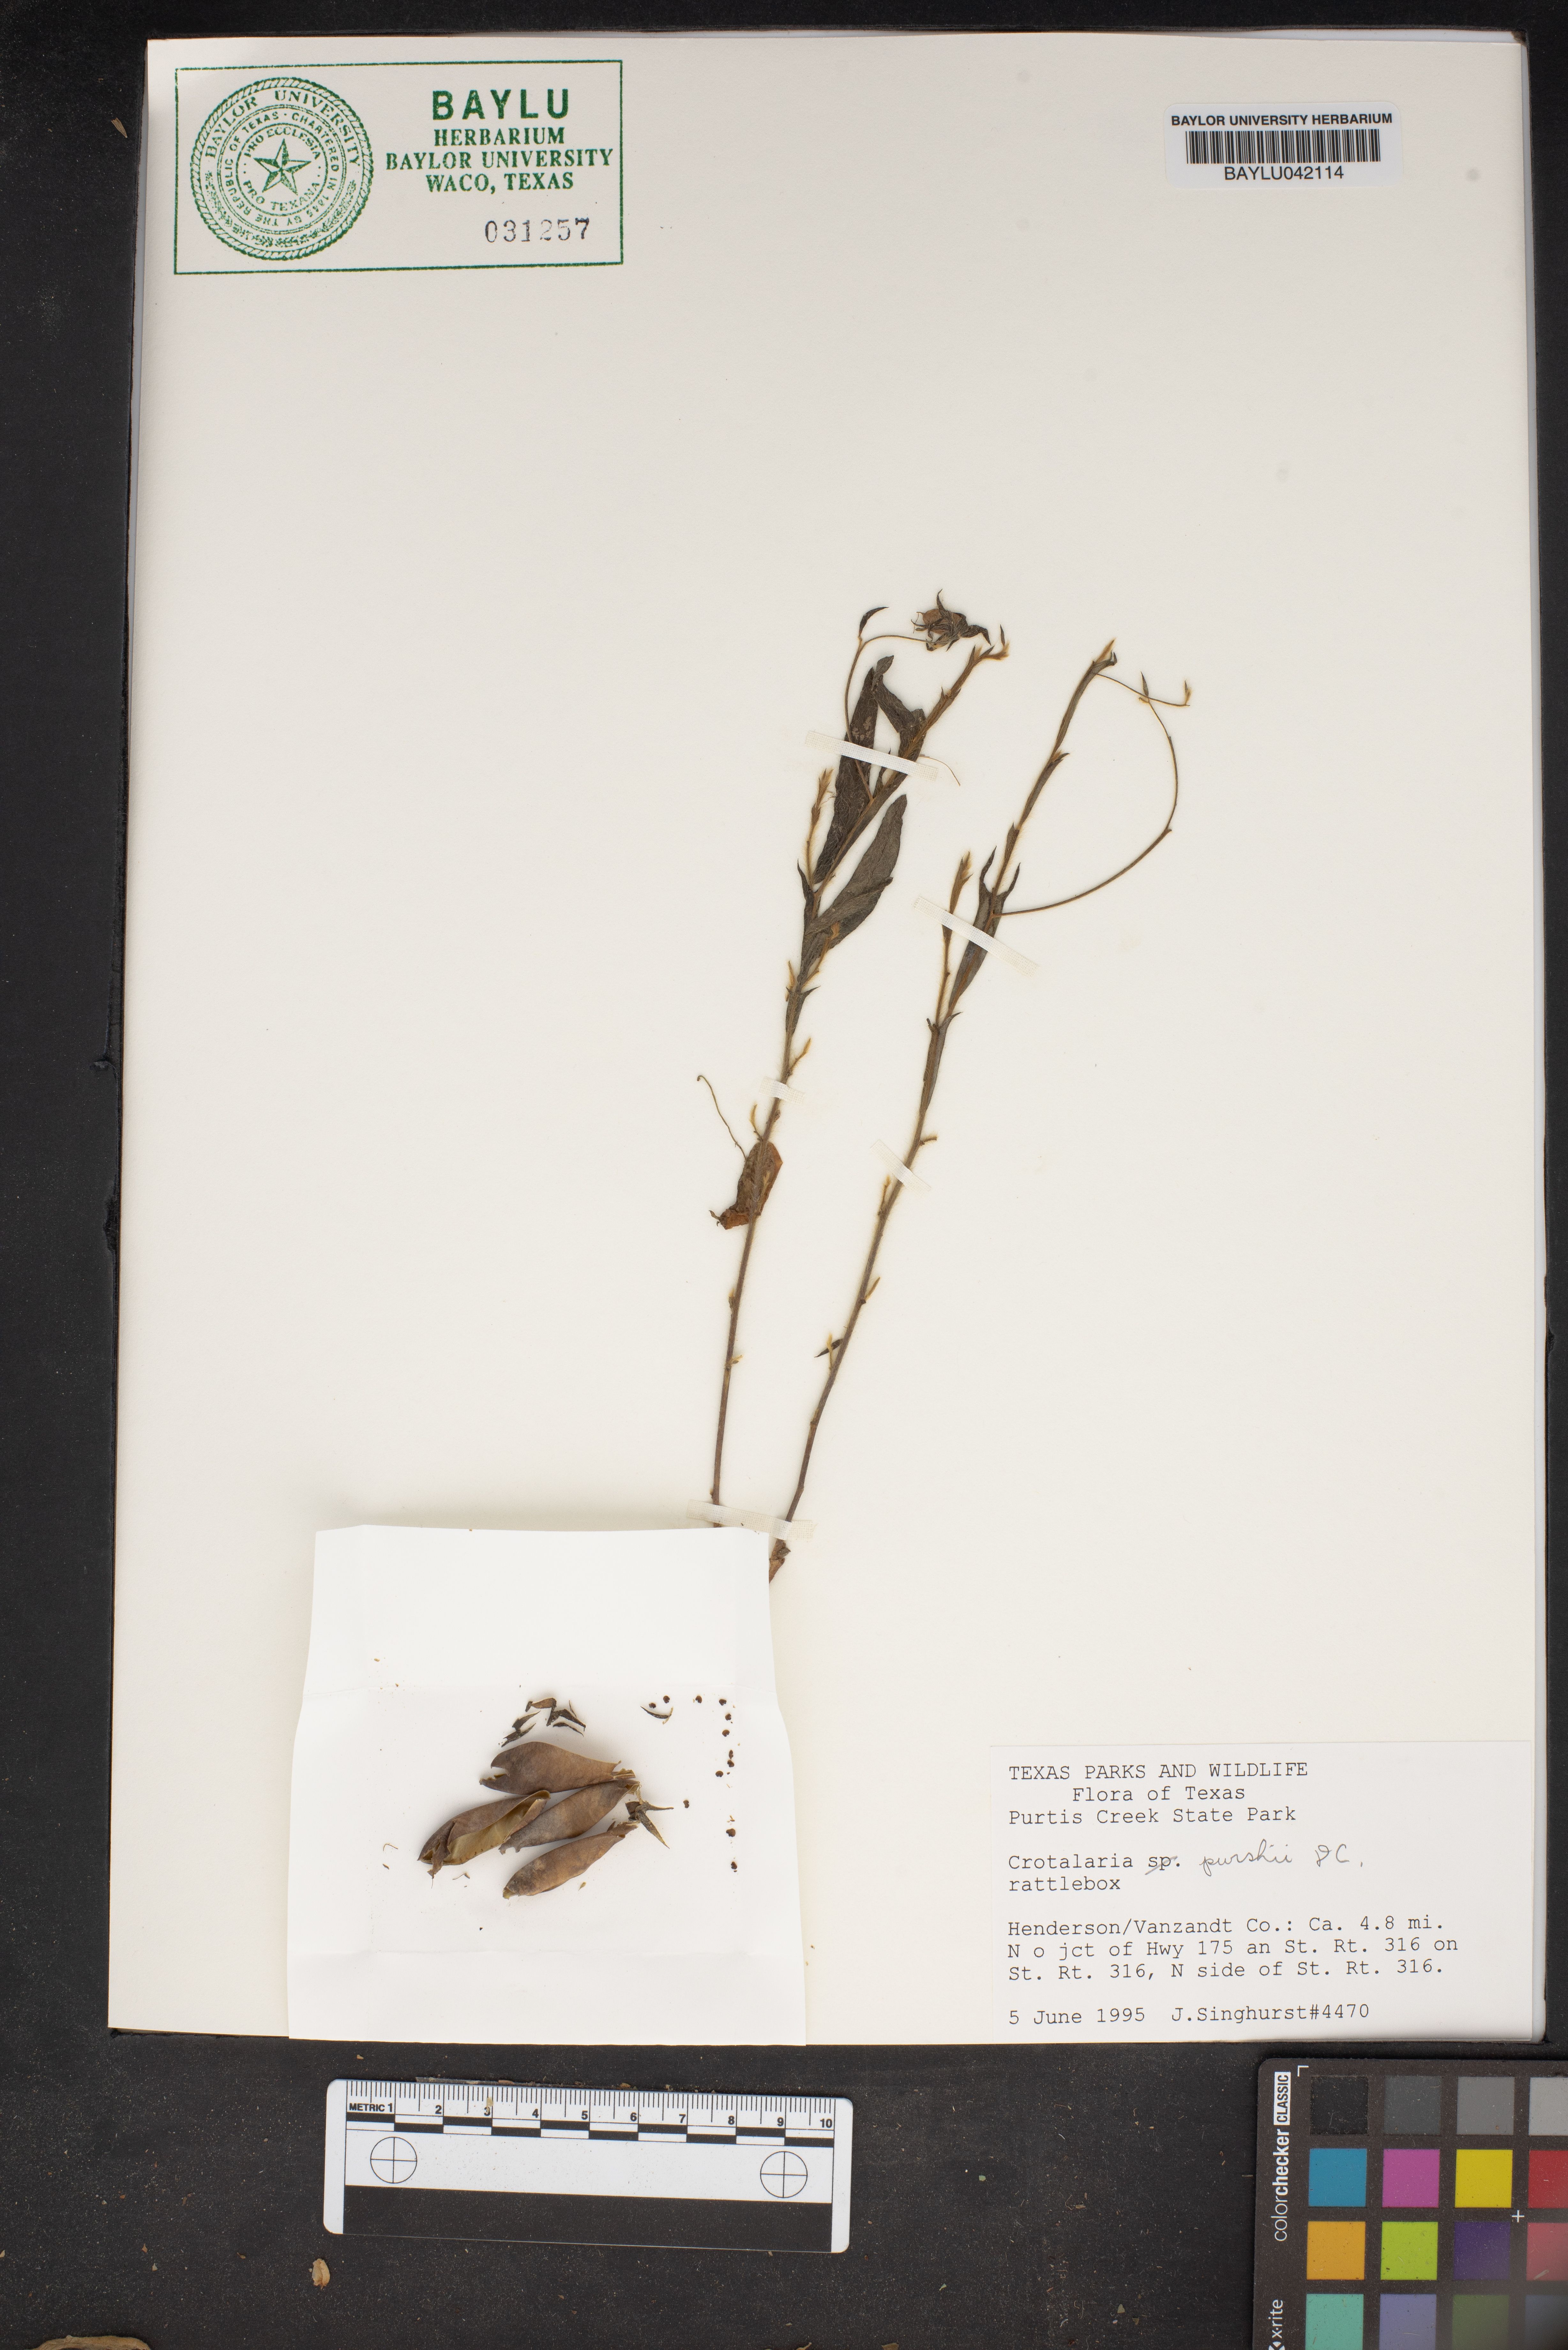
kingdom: Plantae
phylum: Tracheophyta
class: Magnoliopsida
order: Fabales
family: Fabaceae
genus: Crotalaria
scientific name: Crotalaria purshii
